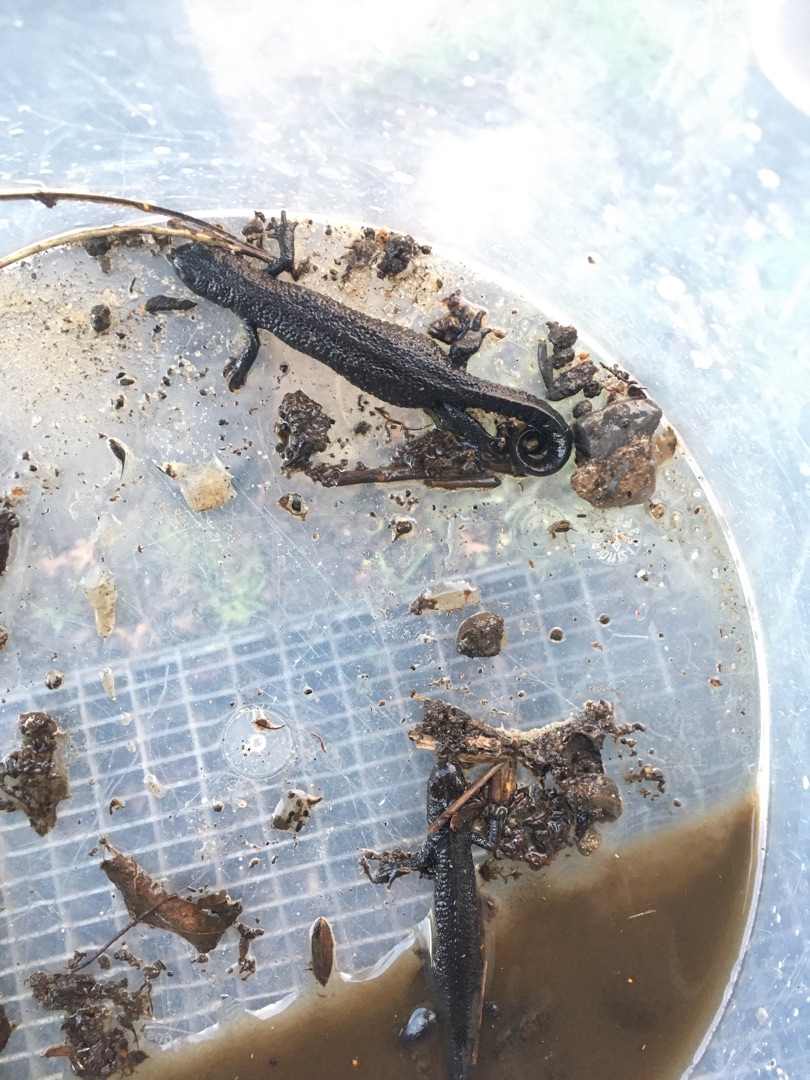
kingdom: Animalia
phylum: Chordata
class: Amphibia
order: Caudata
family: Salamandridae
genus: Triturus
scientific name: Triturus cristatus
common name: Stor vandsalamander
